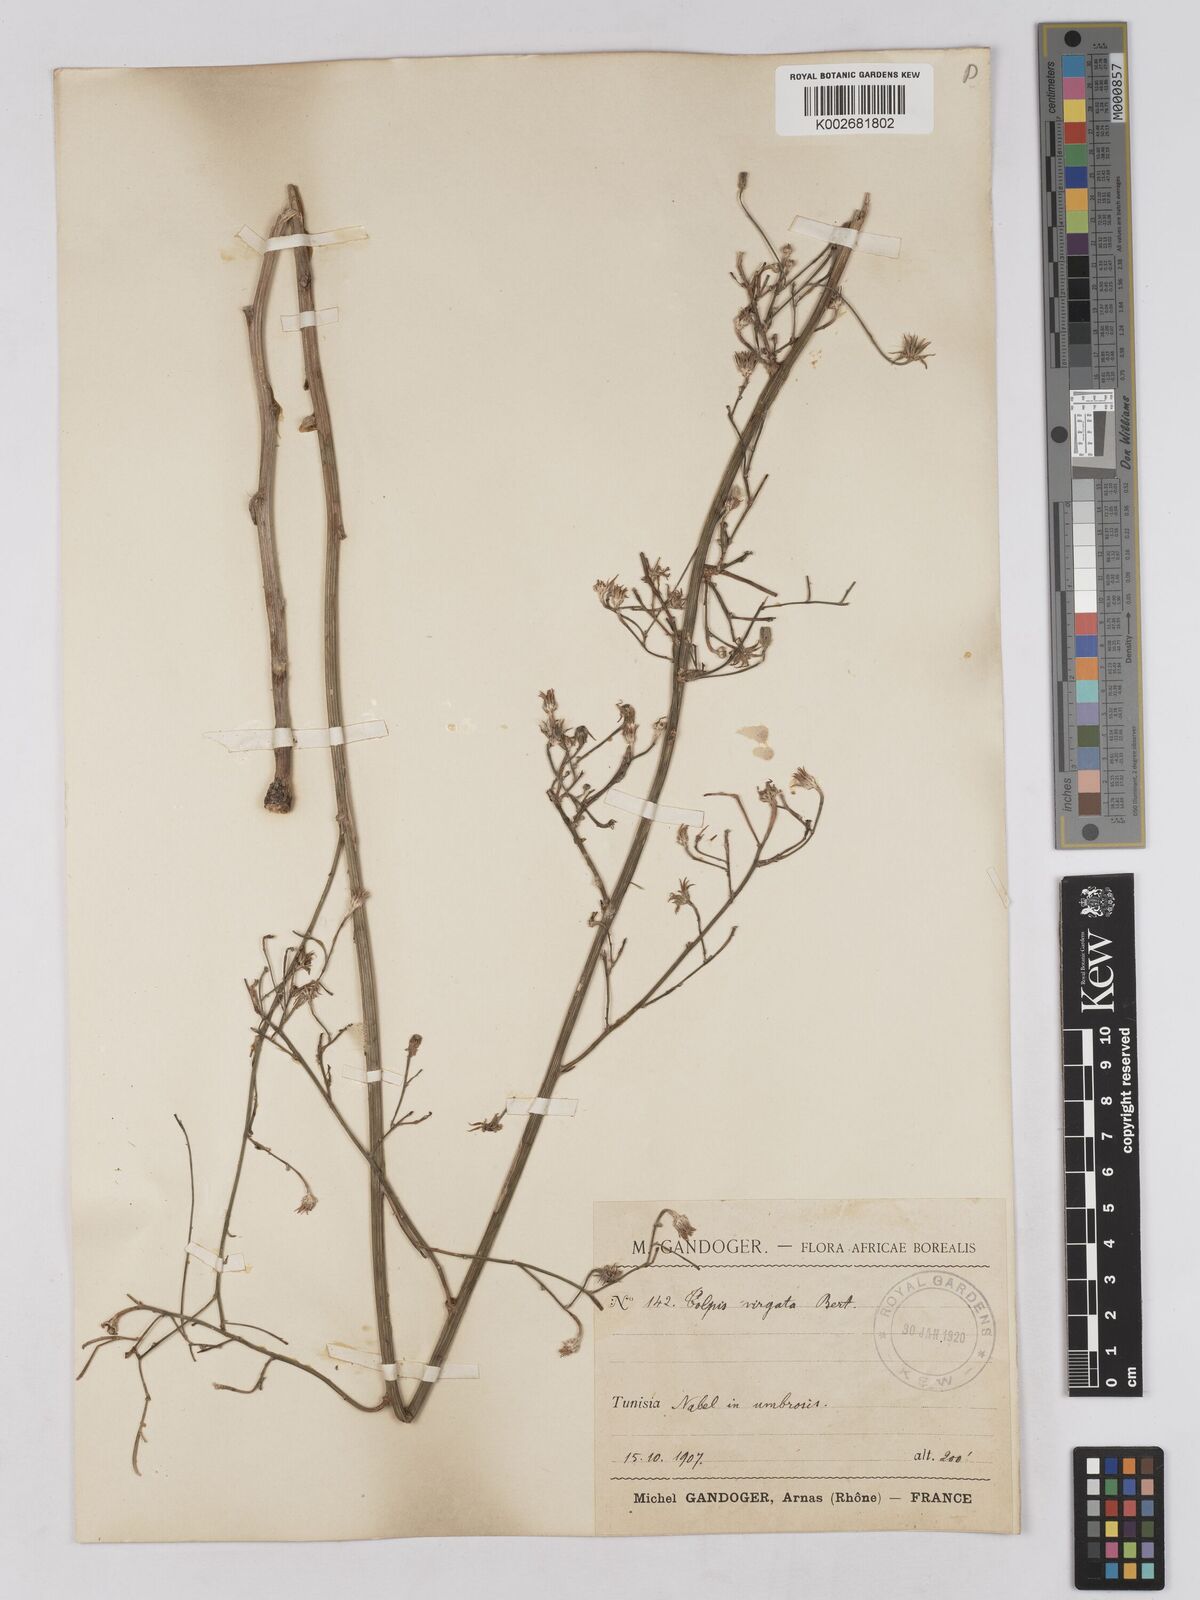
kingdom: Plantae
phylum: Tracheophyta
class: Magnoliopsida
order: Asterales
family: Asteraceae
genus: Tolpis
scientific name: Tolpis virgata
